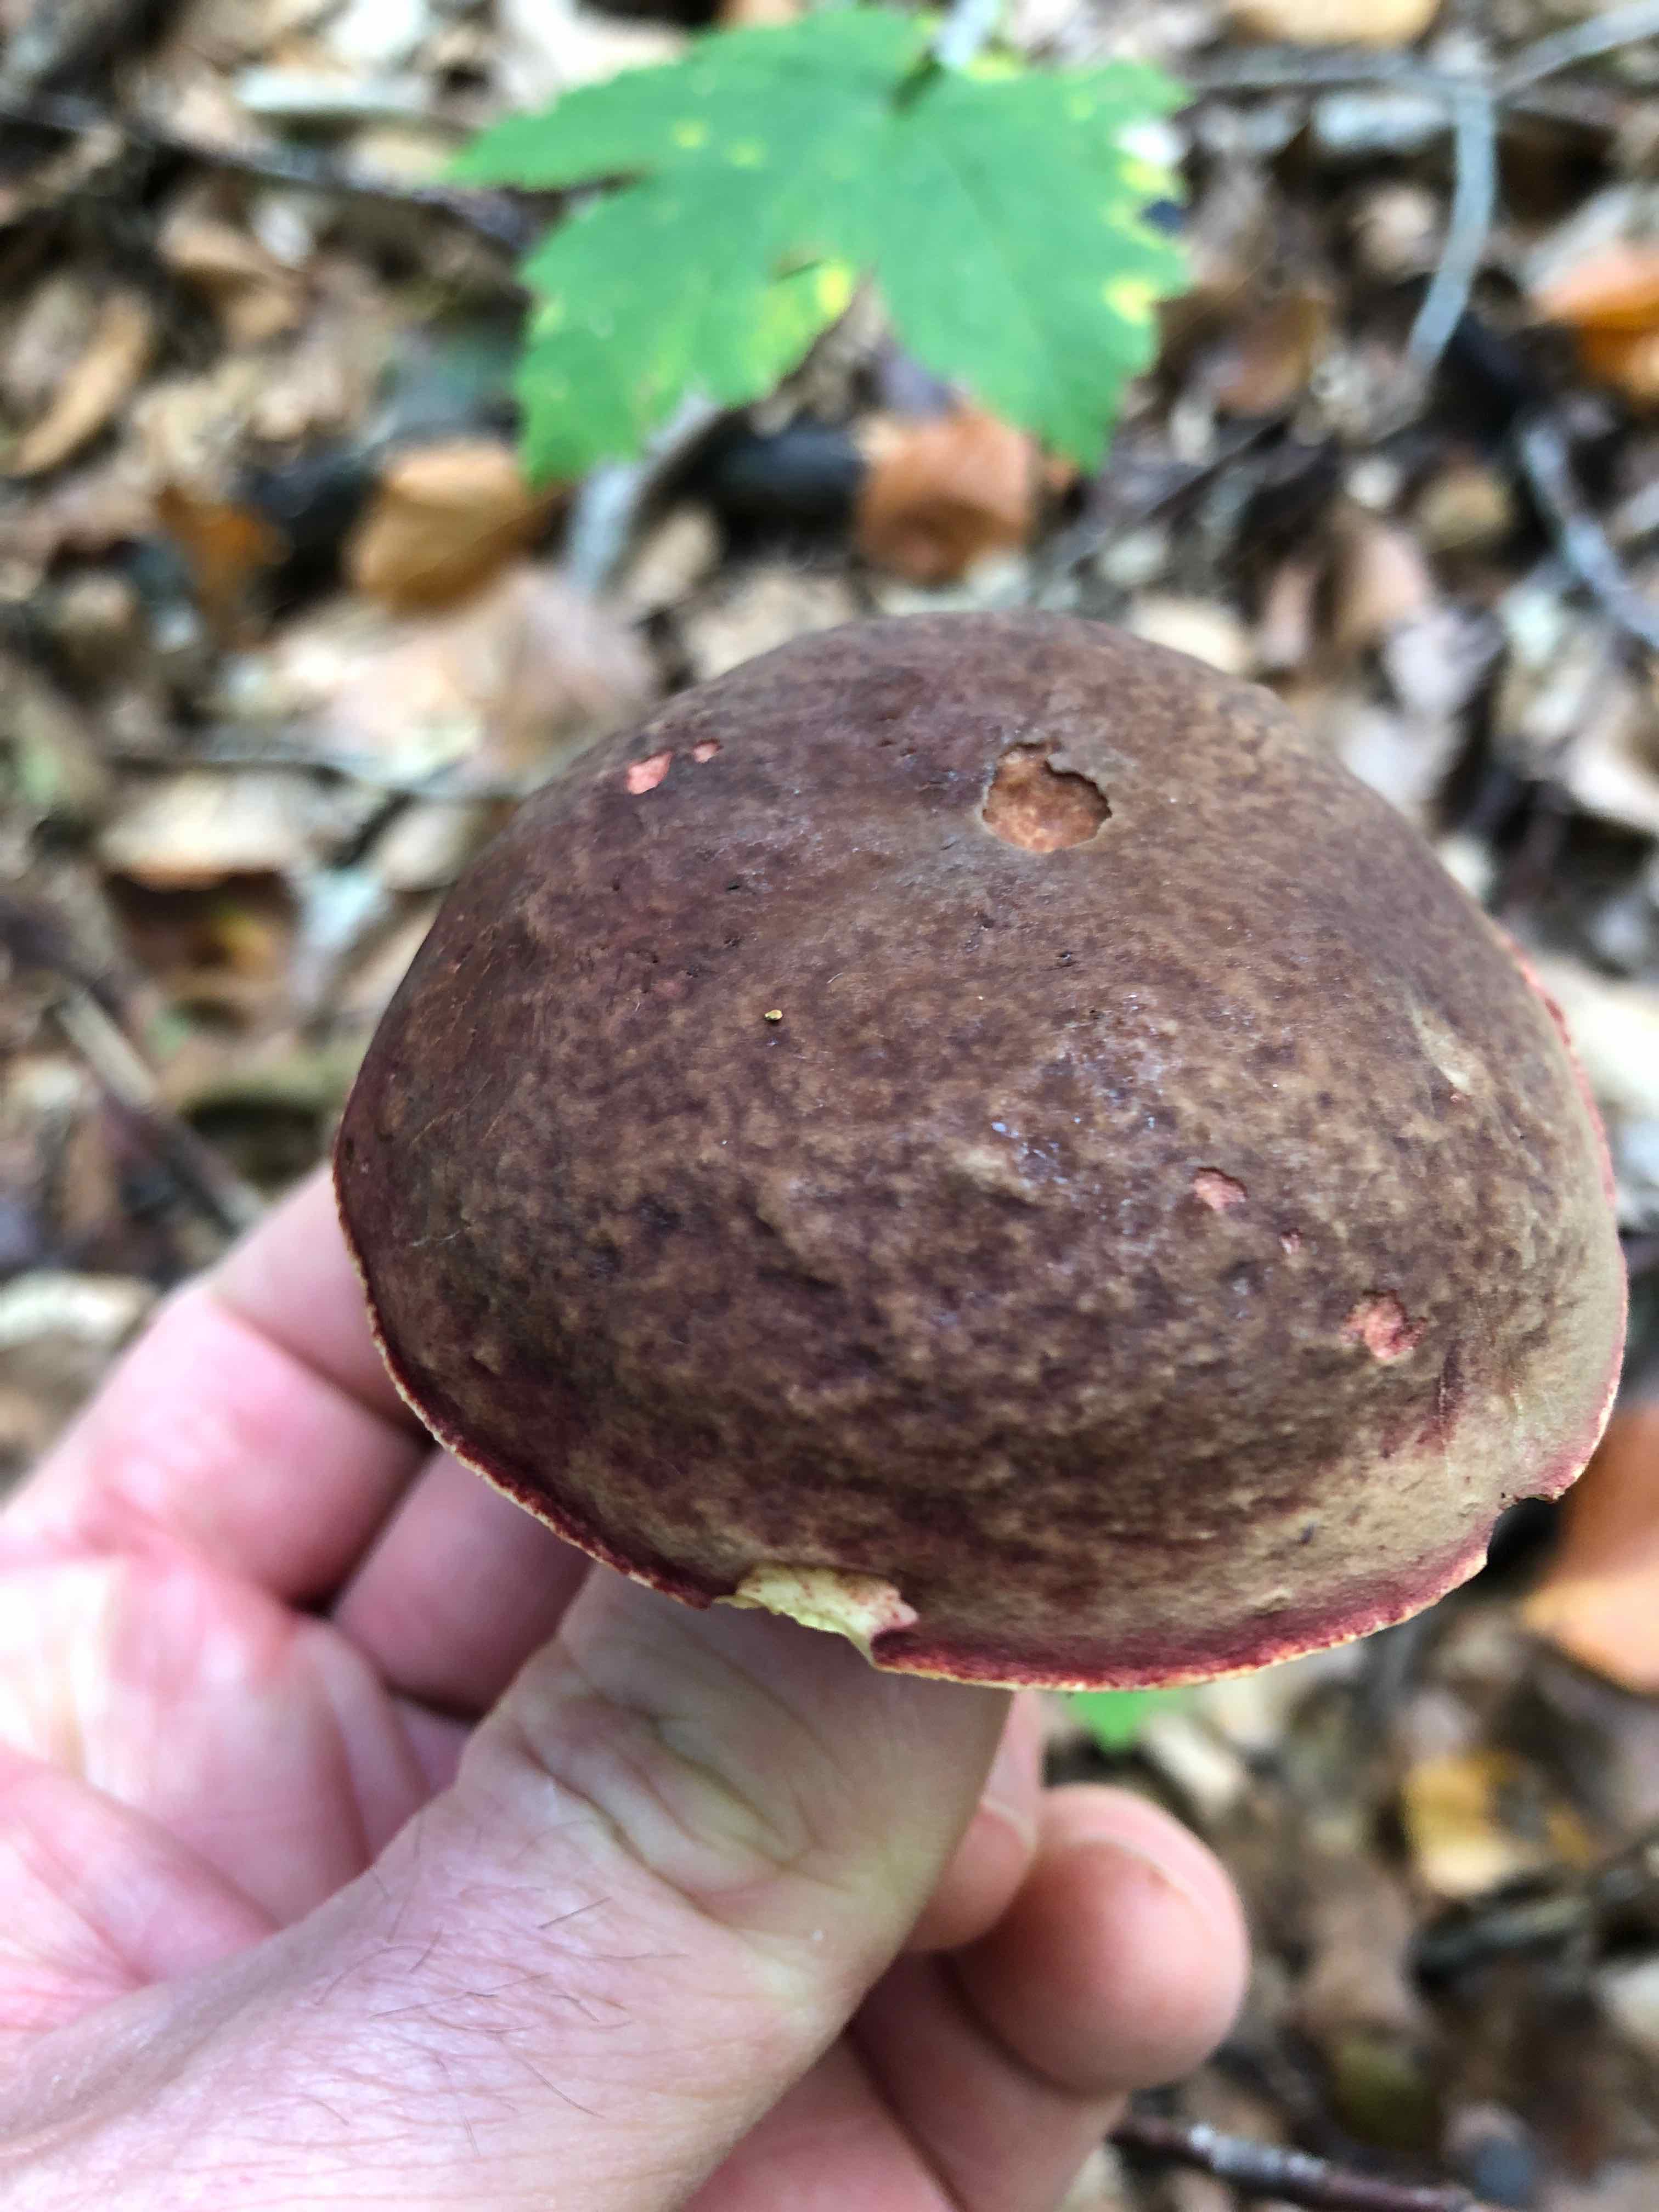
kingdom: Fungi
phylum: Basidiomycota
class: Agaricomycetes
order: Boletales
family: Boletaceae
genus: Xerocomellus
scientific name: Xerocomellus pruinatus
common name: dugget rørhat
